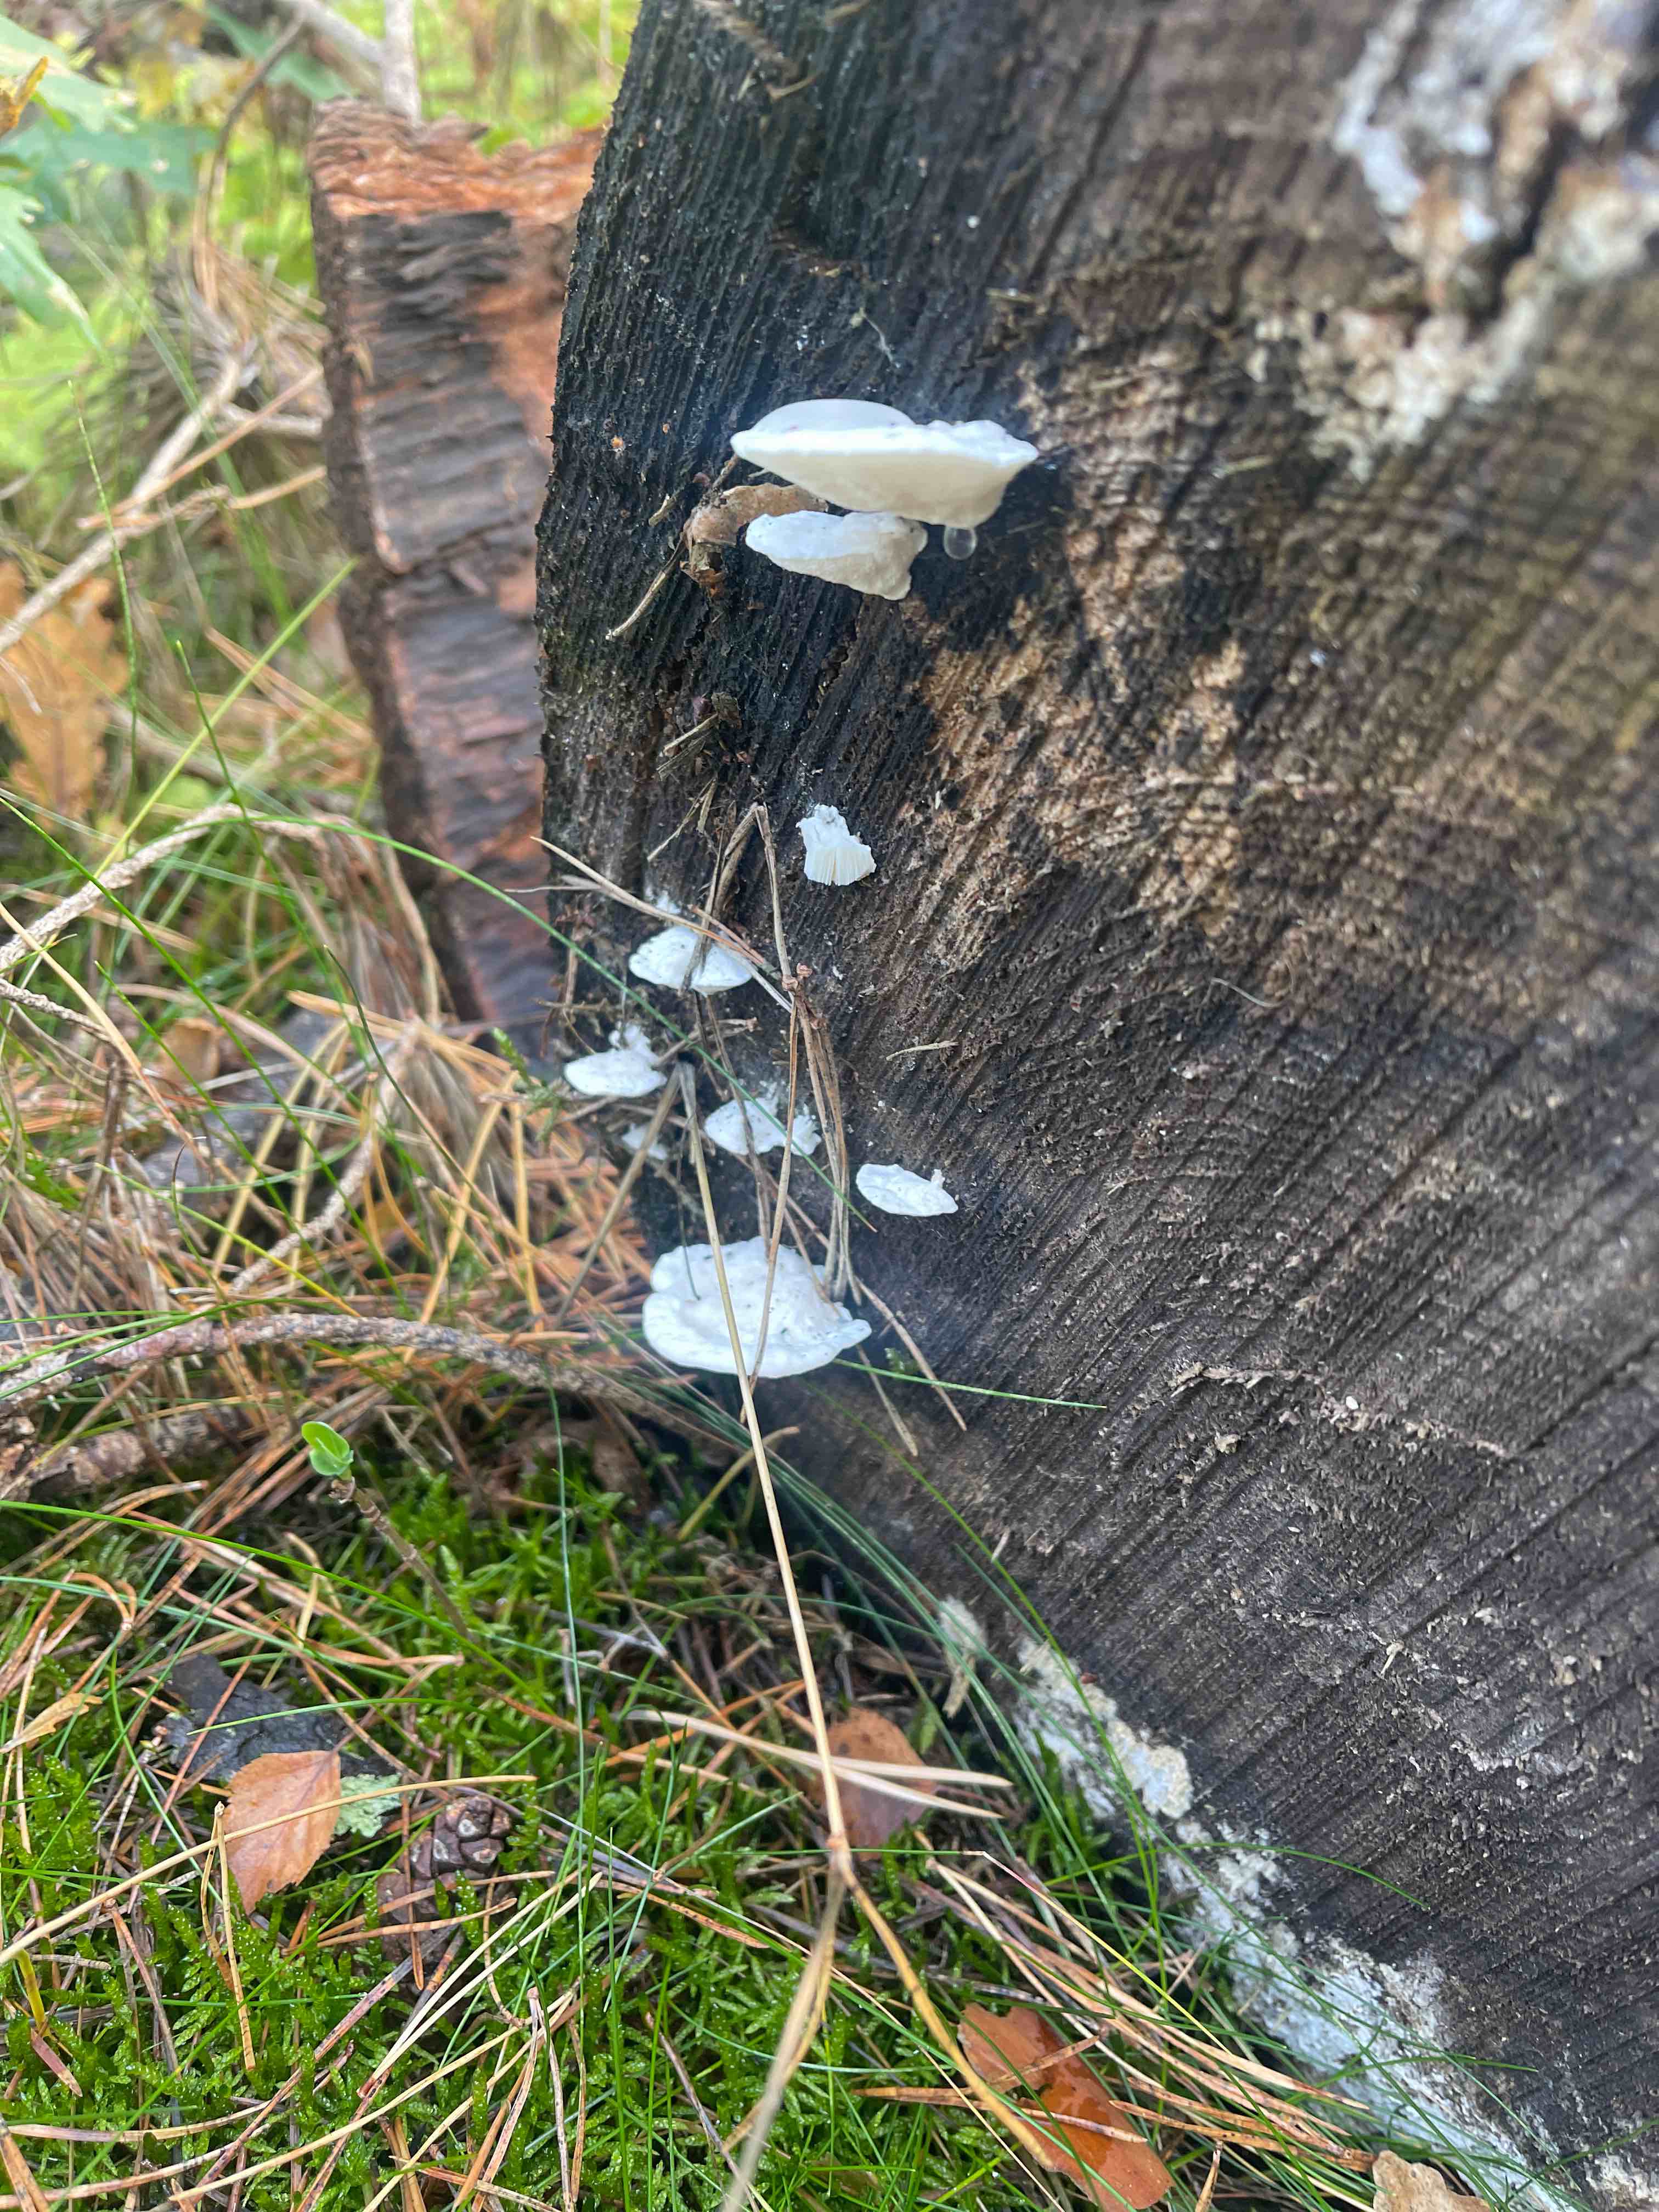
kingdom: Fungi
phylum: Basidiomycota
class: Agaricomycetes
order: Polyporales
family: Dacryobolaceae
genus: Postia
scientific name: Postia
